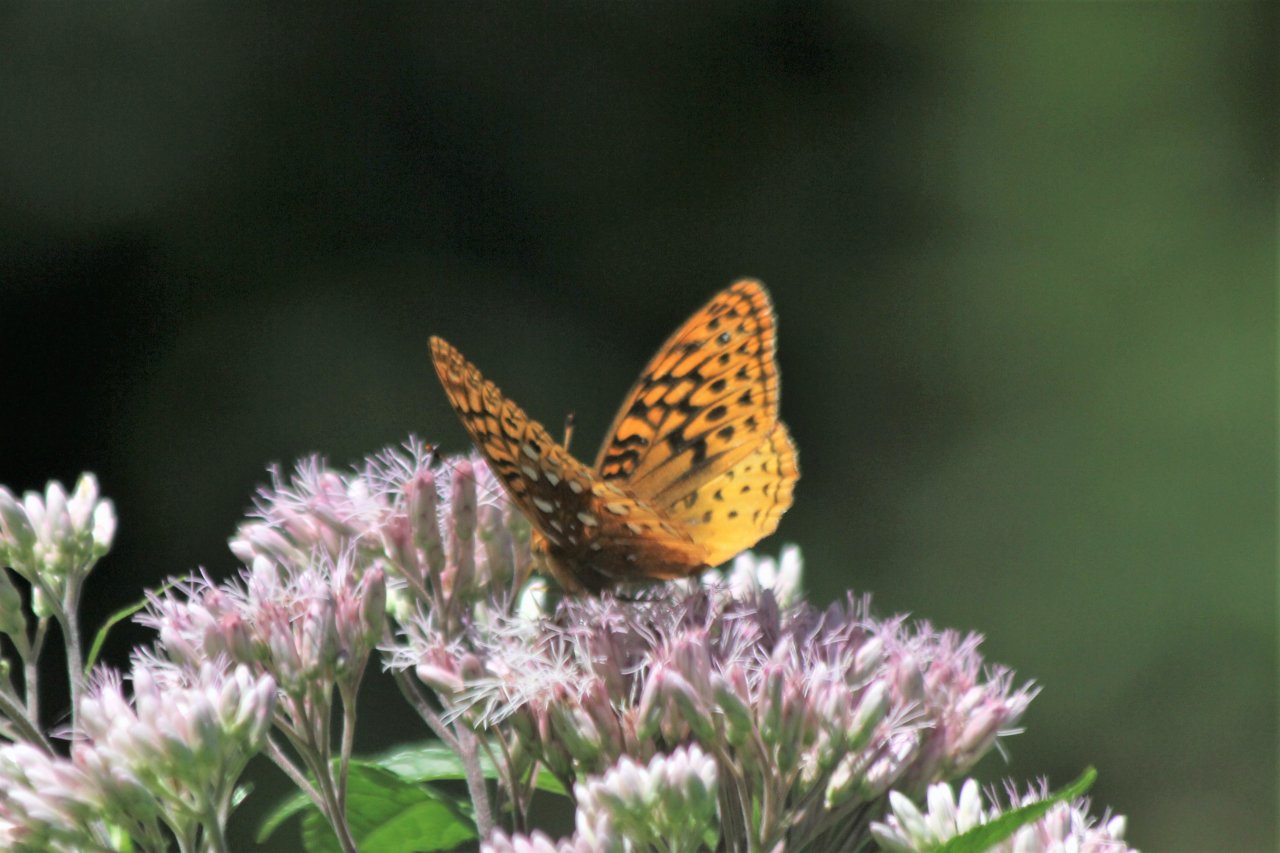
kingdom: Animalia
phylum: Arthropoda
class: Insecta
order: Lepidoptera
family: Nymphalidae
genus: Speyeria
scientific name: Speyeria cybele
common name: Great Spangled Fritillary
